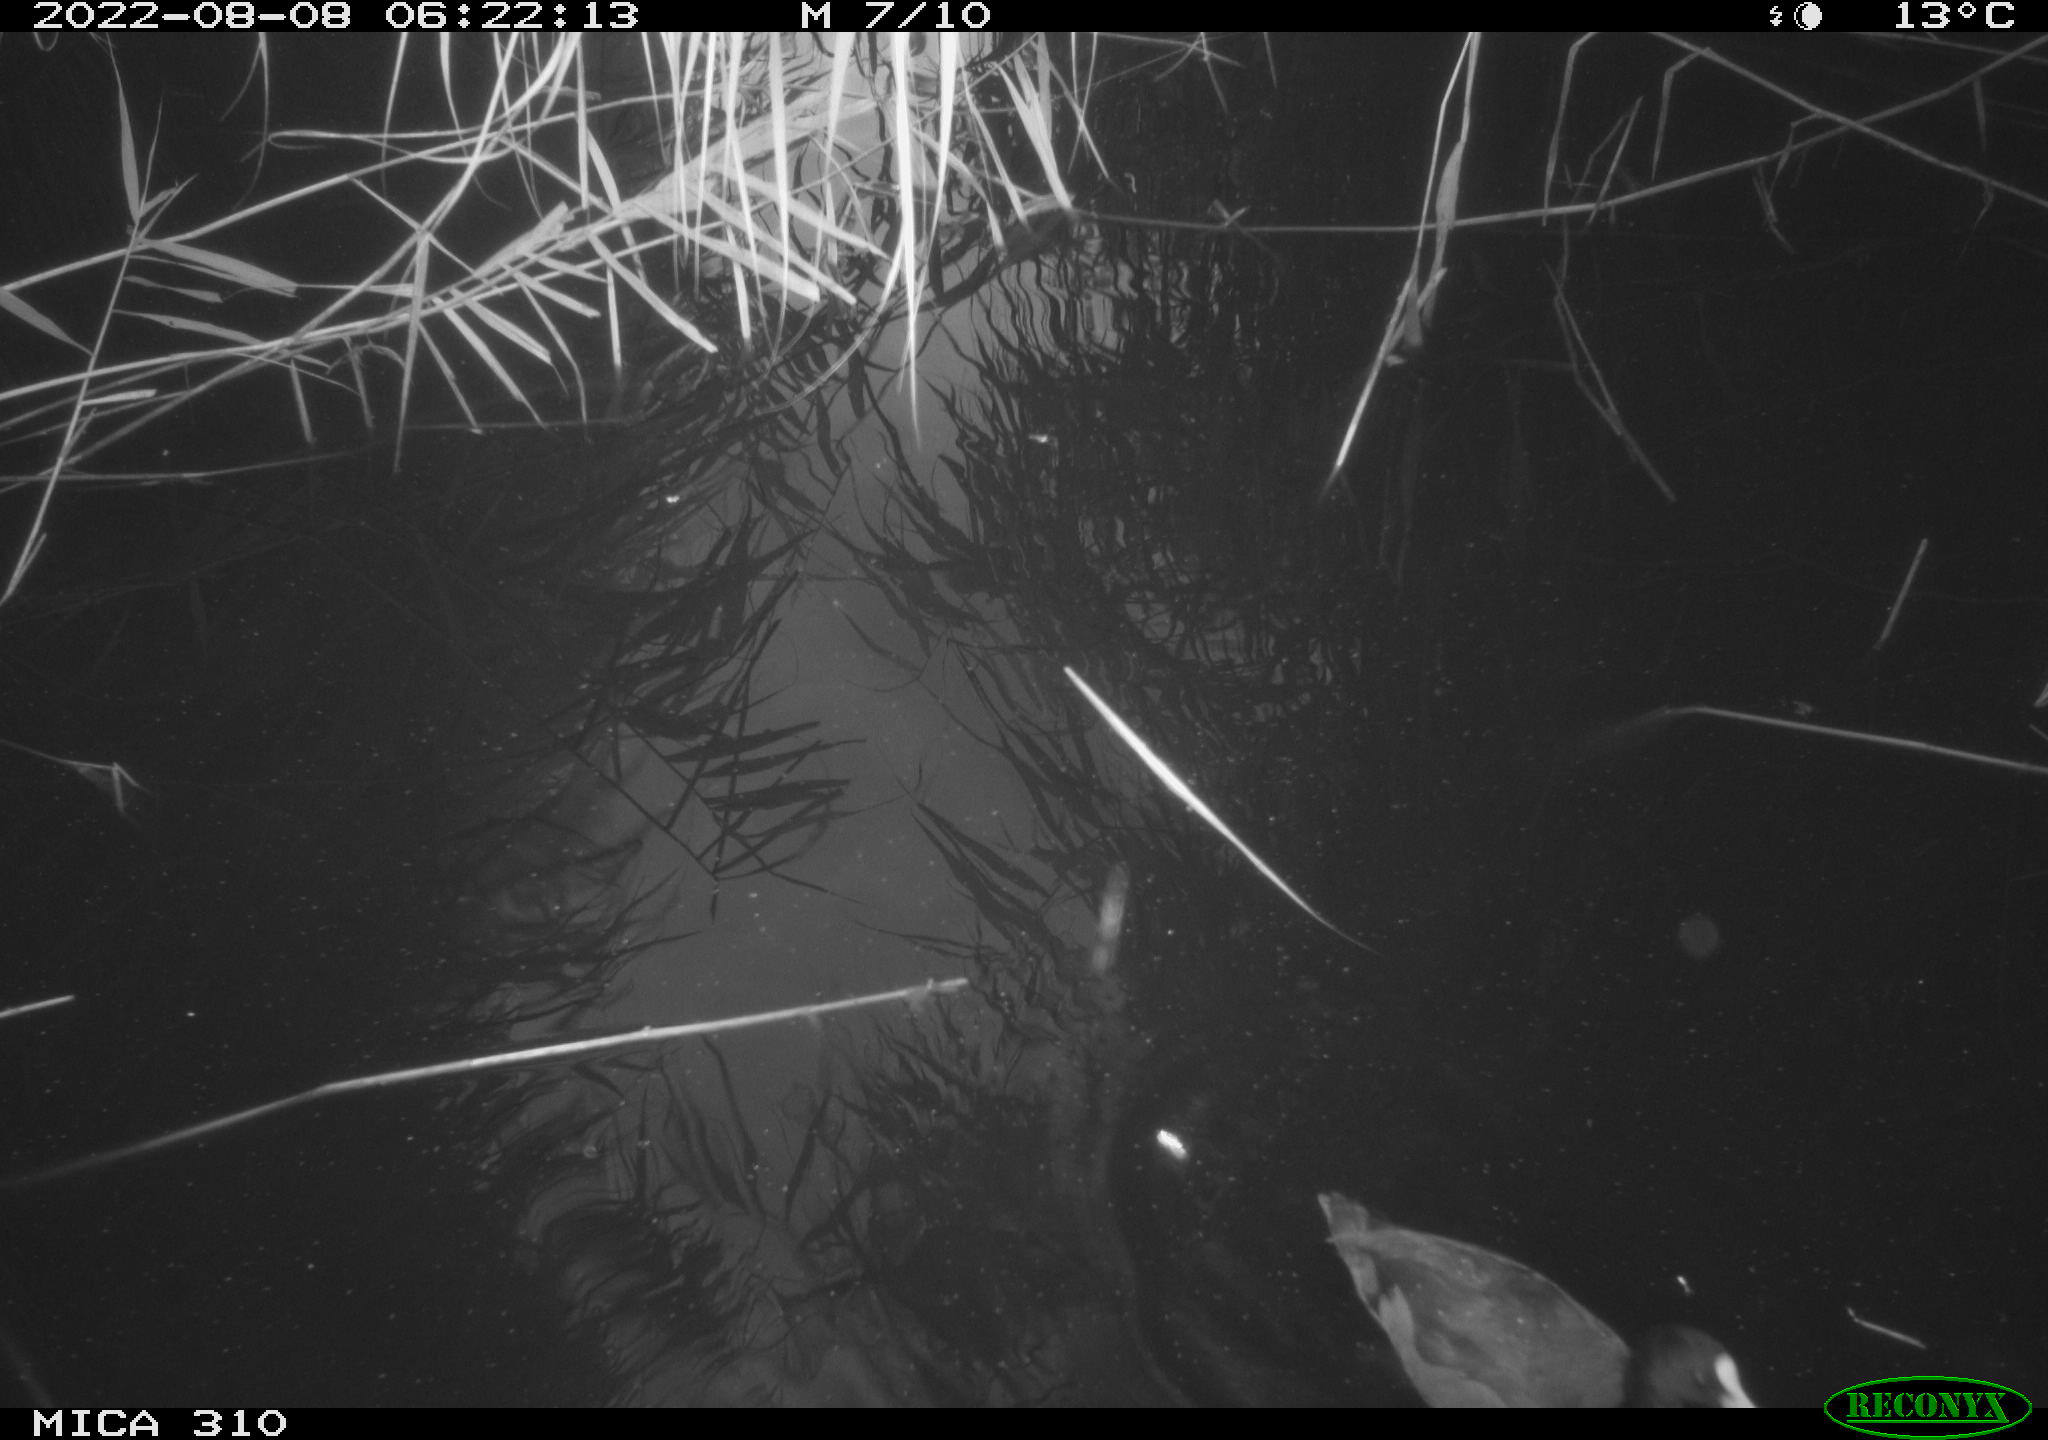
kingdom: Animalia
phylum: Chordata
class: Aves
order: Gruiformes
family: Rallidae
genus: Fulica
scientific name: Fulica atra
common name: Eurasian coot
